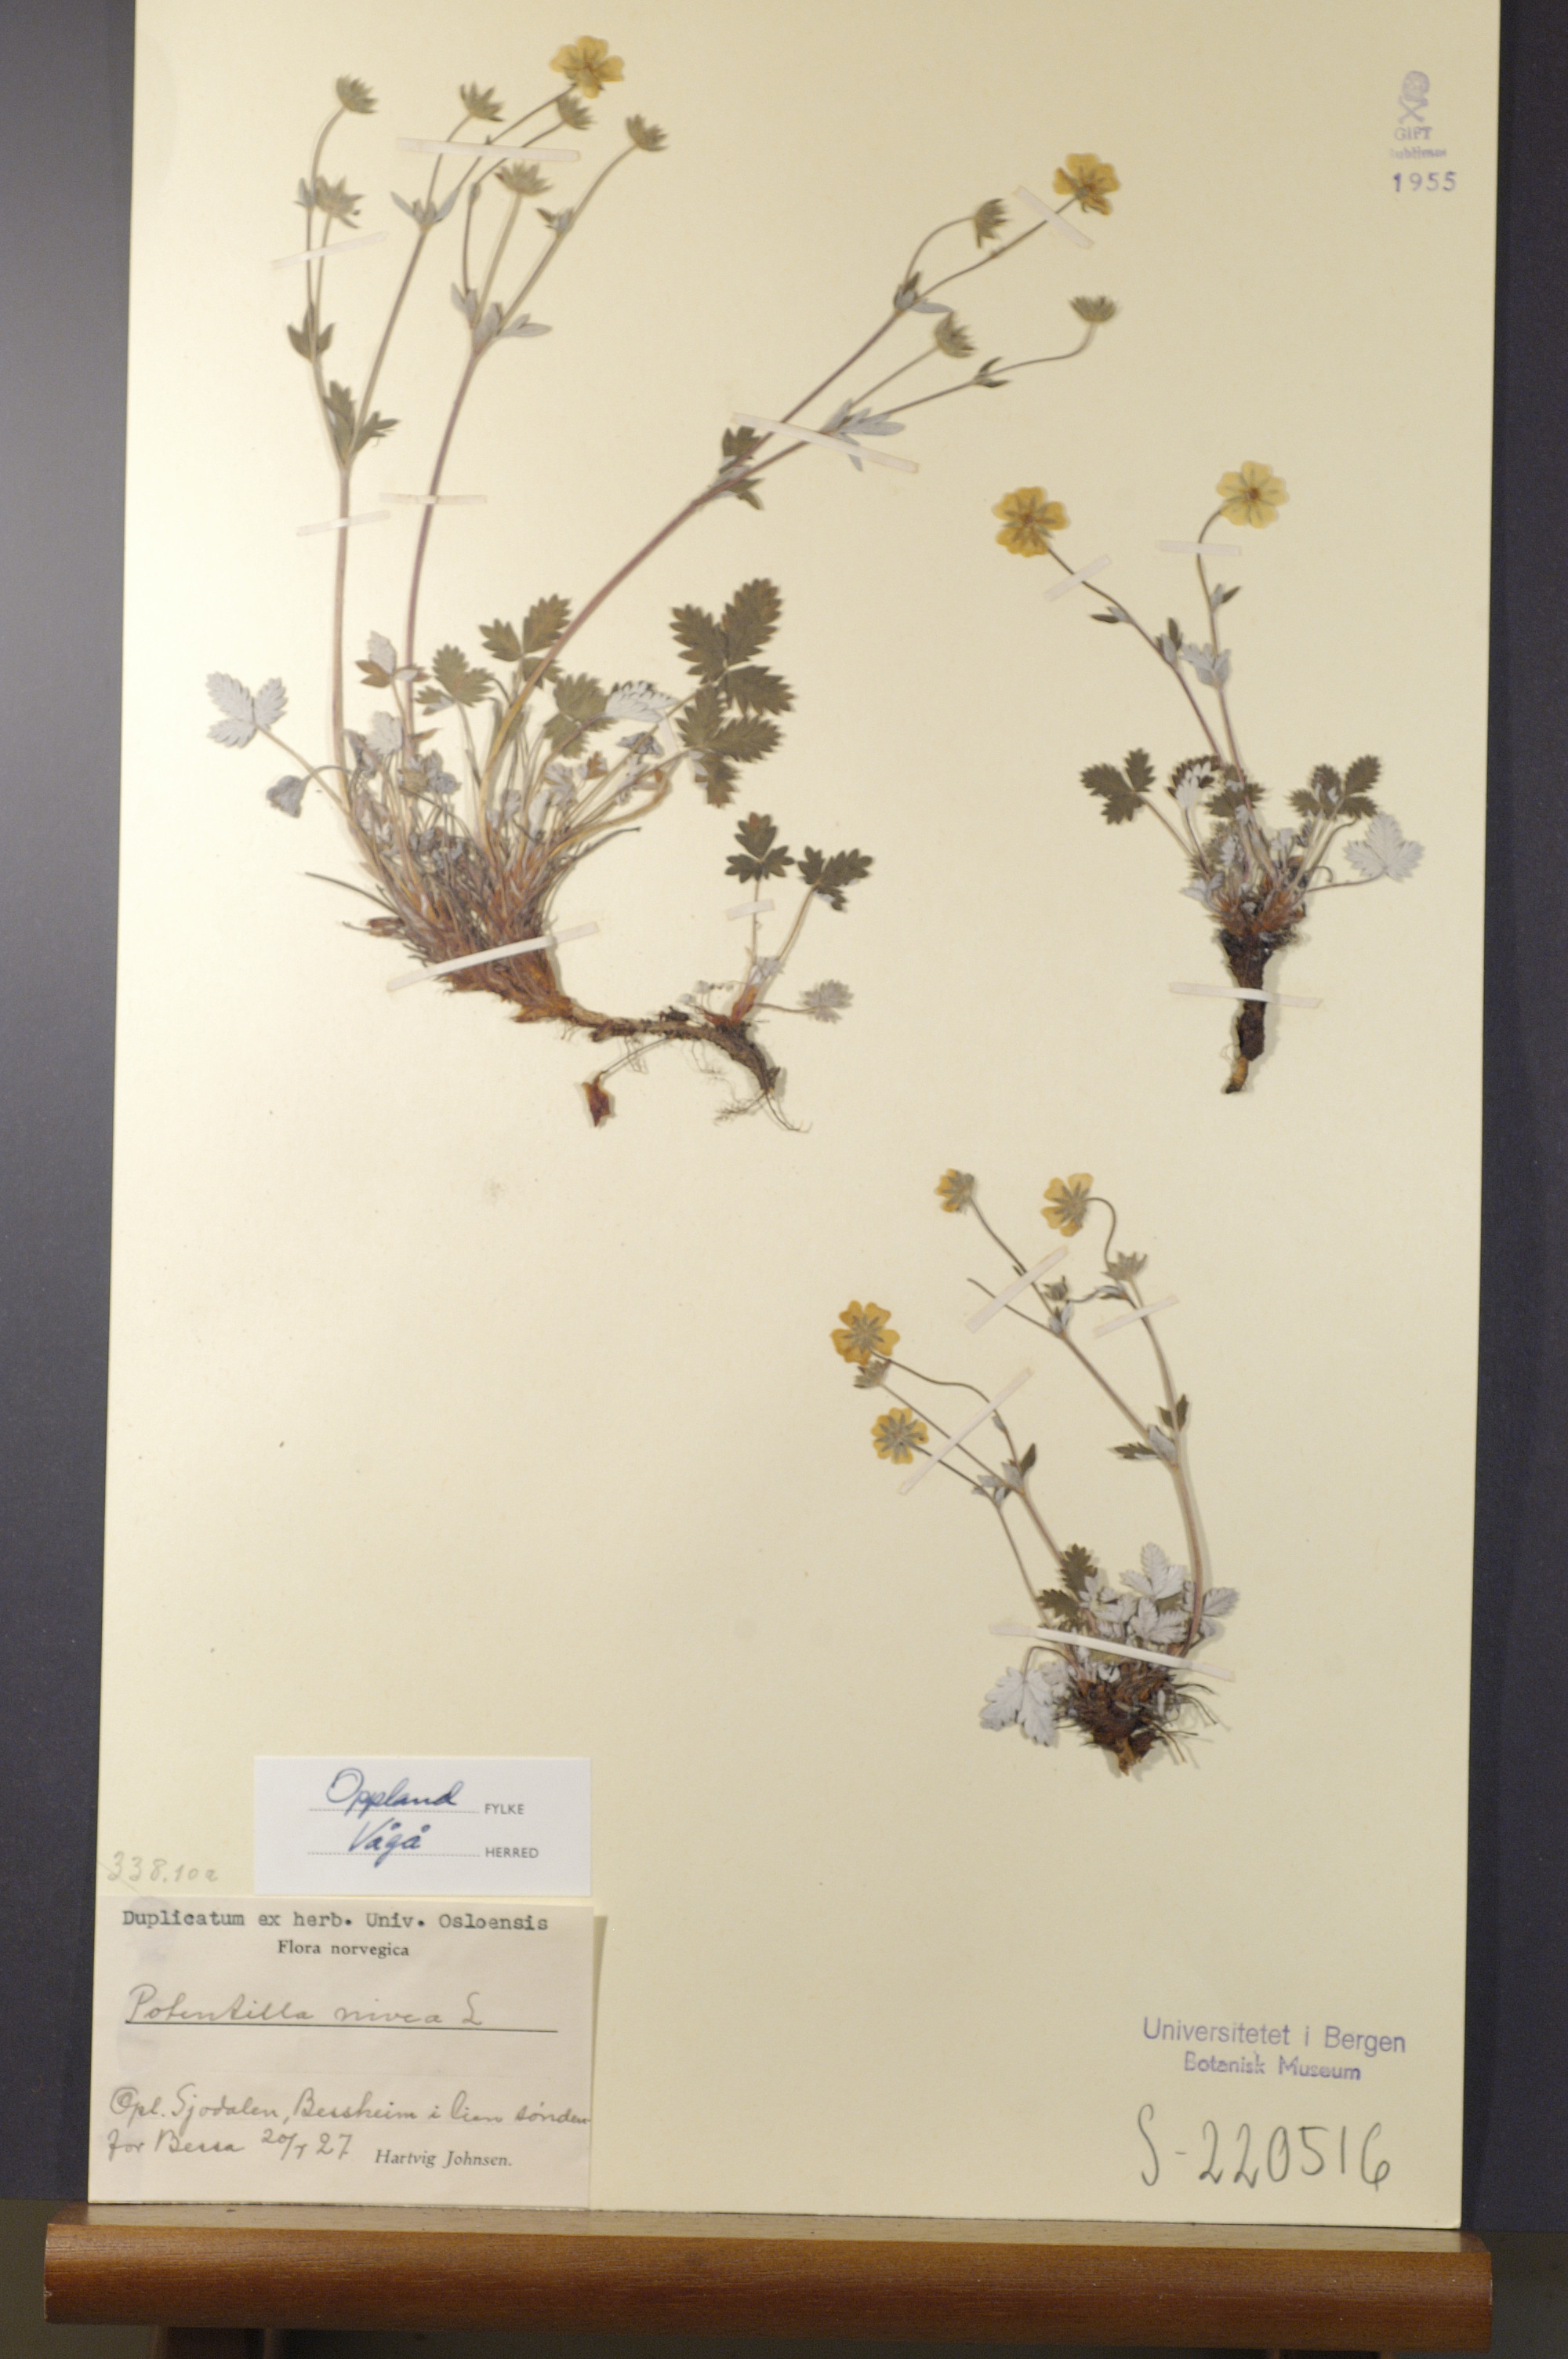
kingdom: Plantae
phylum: Tracheophyta
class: Magnoliopsida
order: Rosales
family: Rosaceae
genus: Potentilla
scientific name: Potentilla arenosa
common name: Bluff cinquefoil
